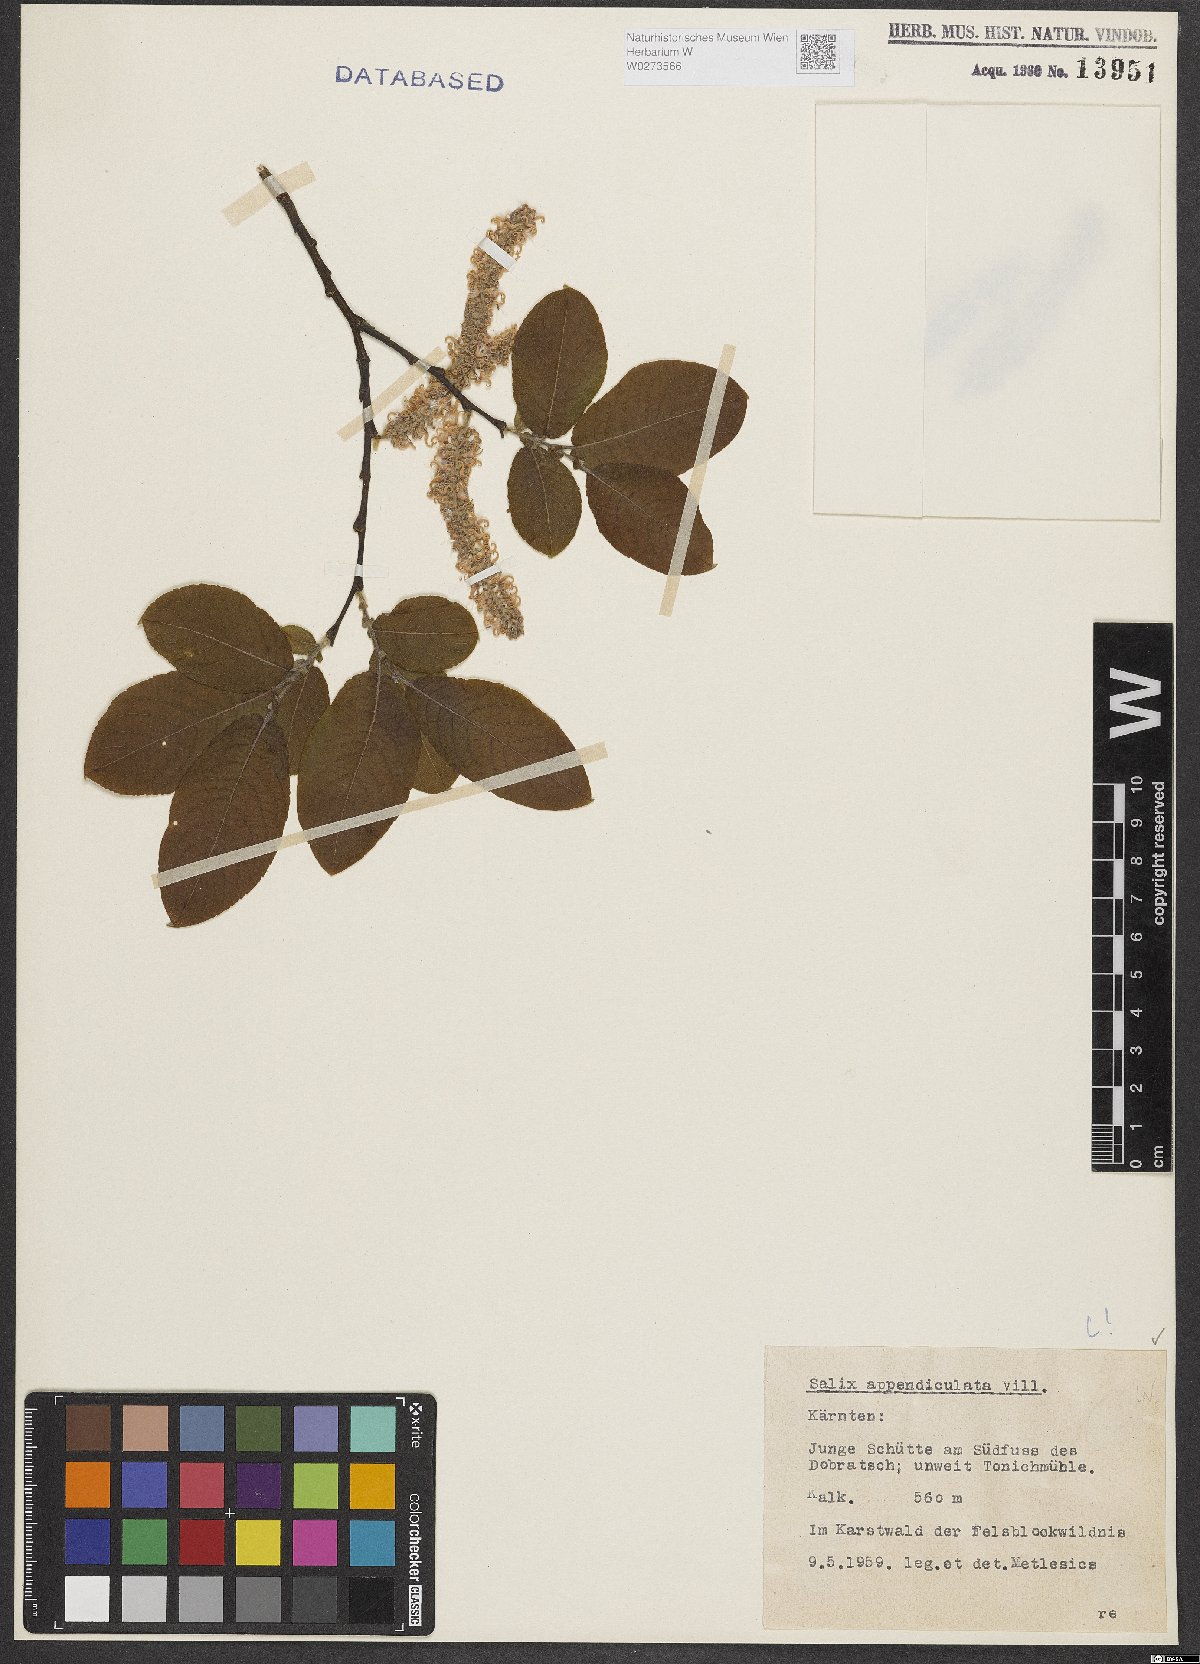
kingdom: Plantae
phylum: Tracheophyta
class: Magnoliopsida
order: Malpighiales
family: Salicaceae
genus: Salix
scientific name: Salix appendiculata
